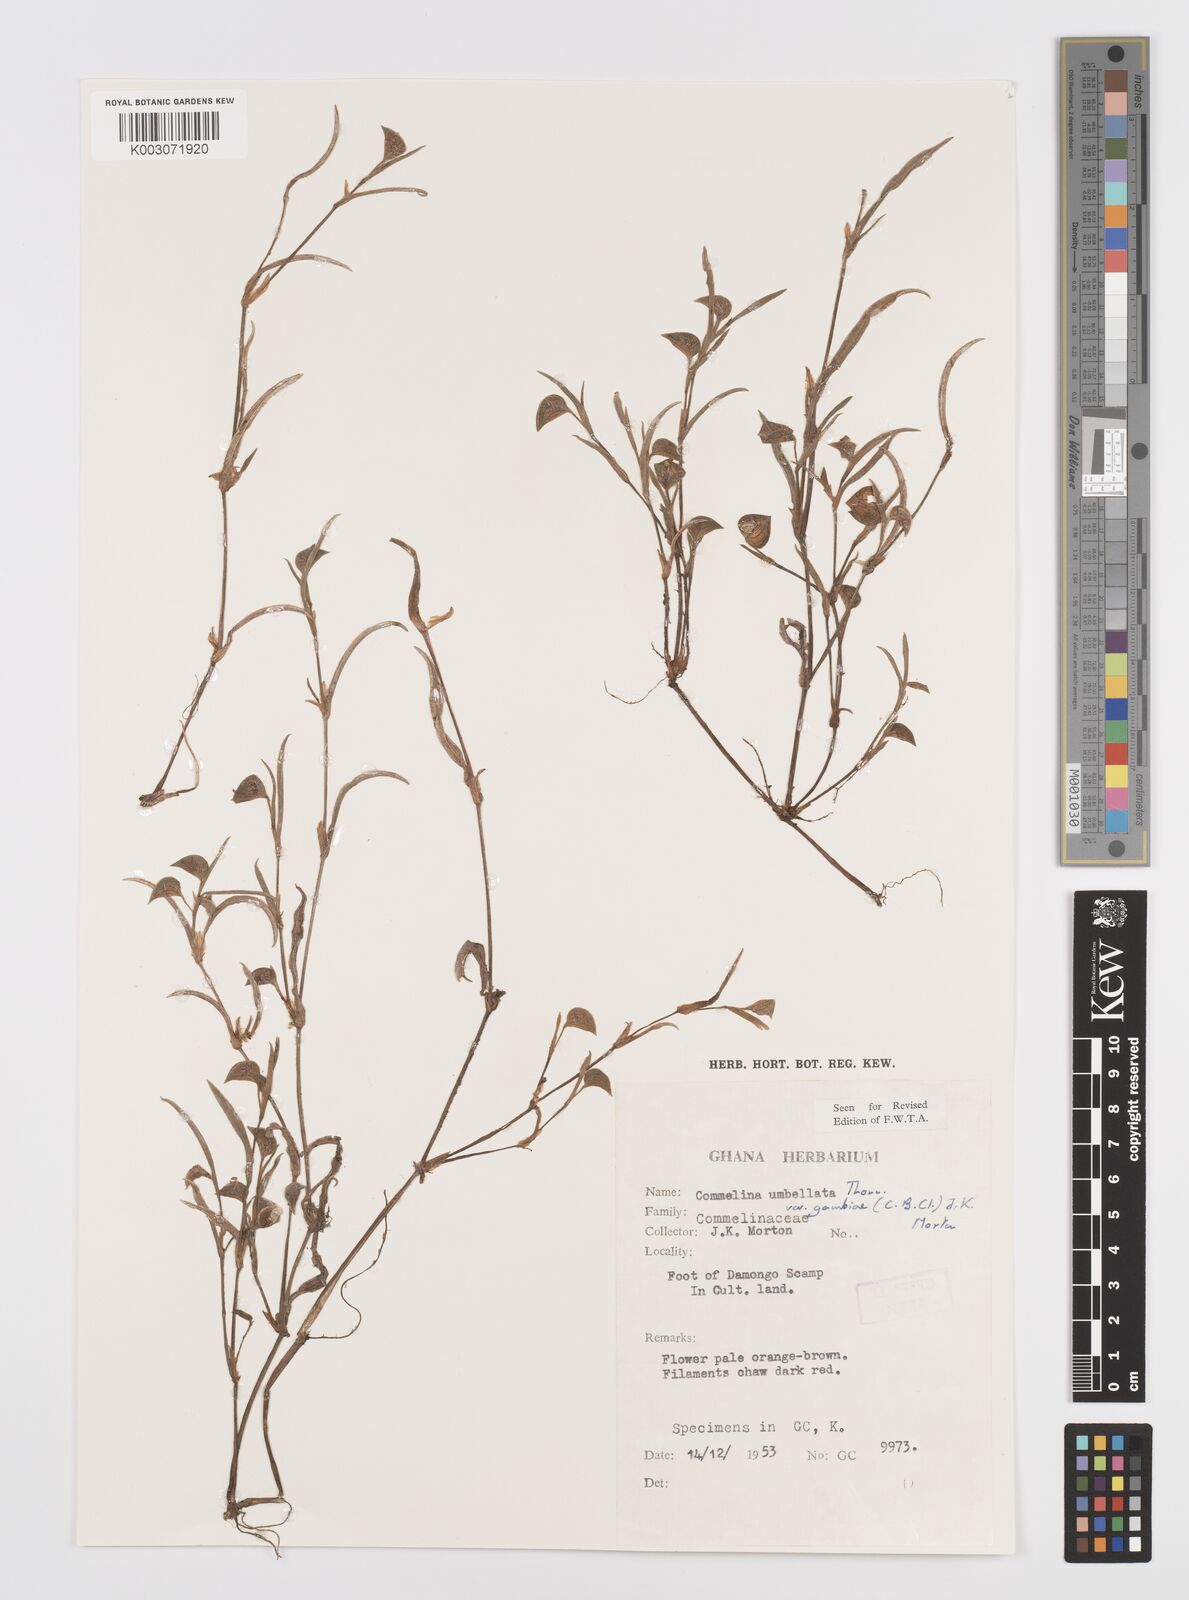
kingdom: Plantae
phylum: Tracheophyta
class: Liliopsida
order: Commelinales
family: Commelinaceae
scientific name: Commelinaceae
